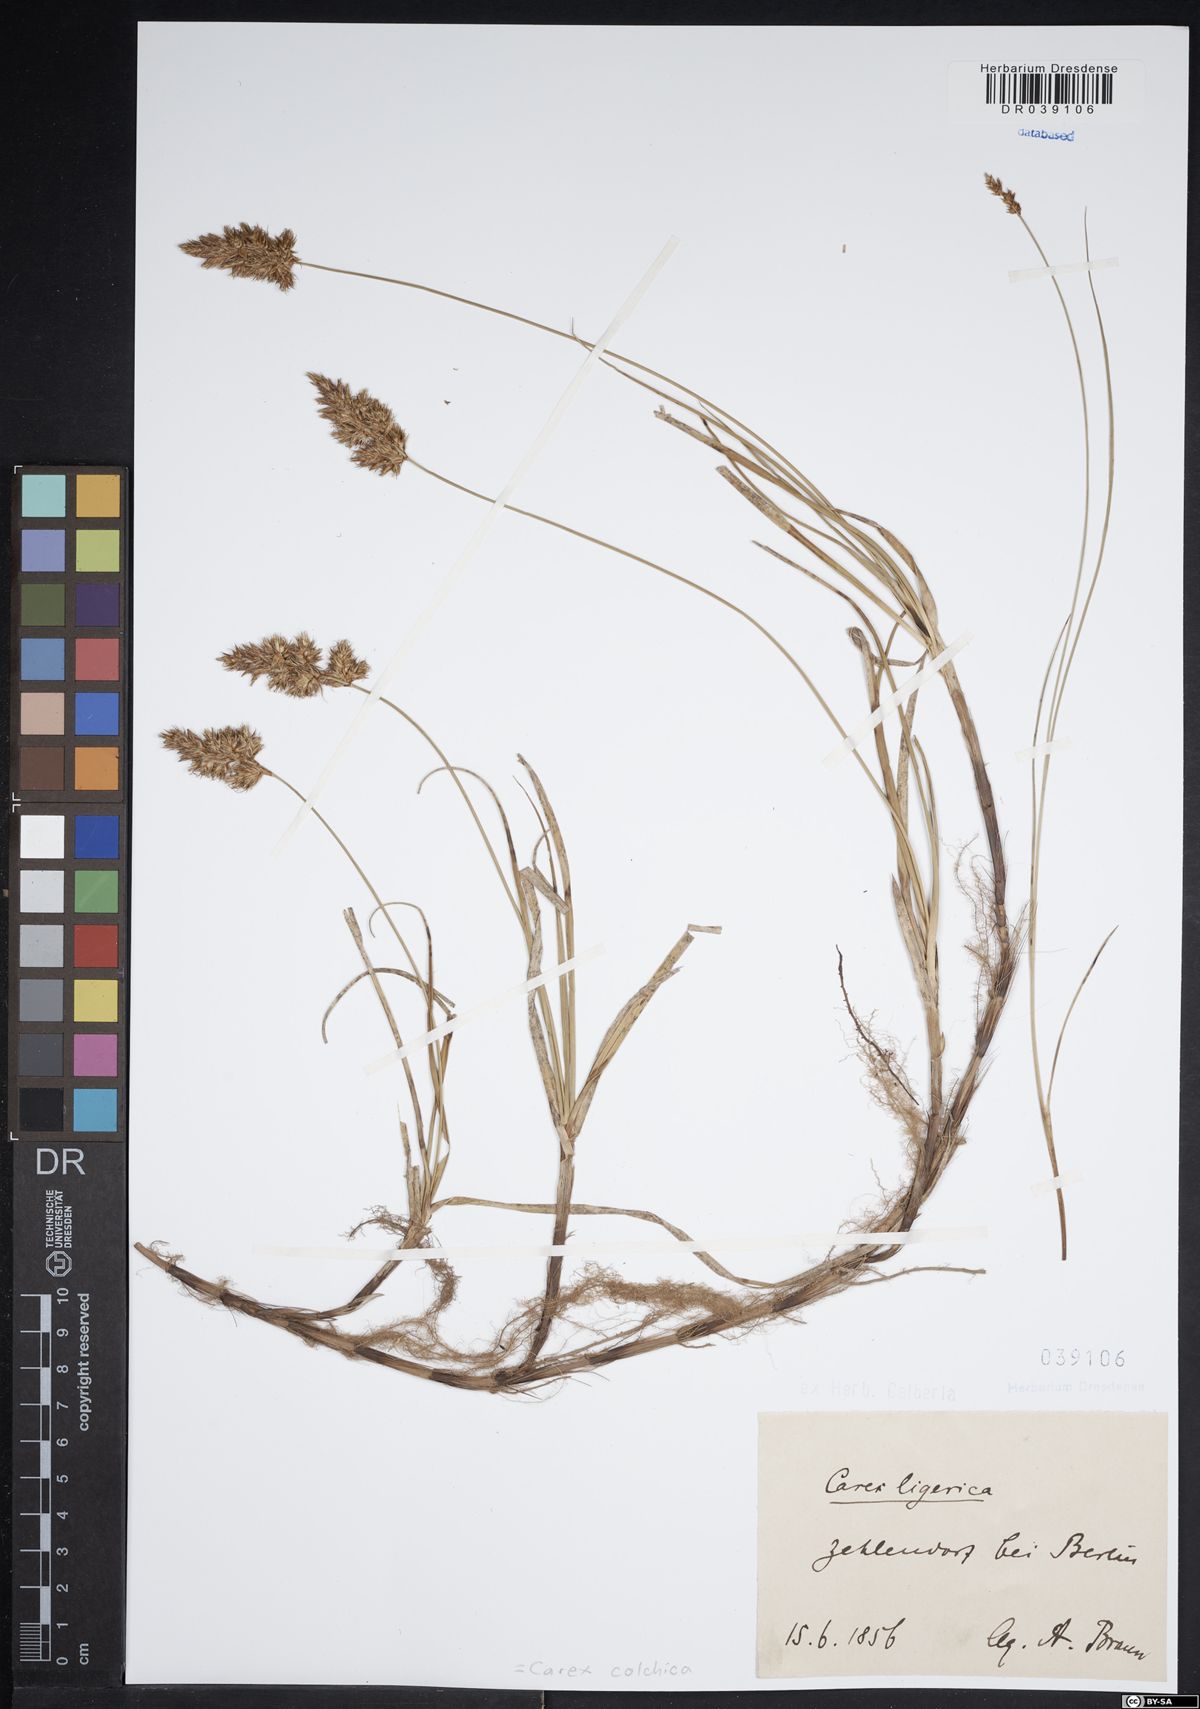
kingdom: Plantae
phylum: Tracheophyta
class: Liliopsida
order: Poales
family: Cyperaceae
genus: Carex
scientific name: Carex colchica
